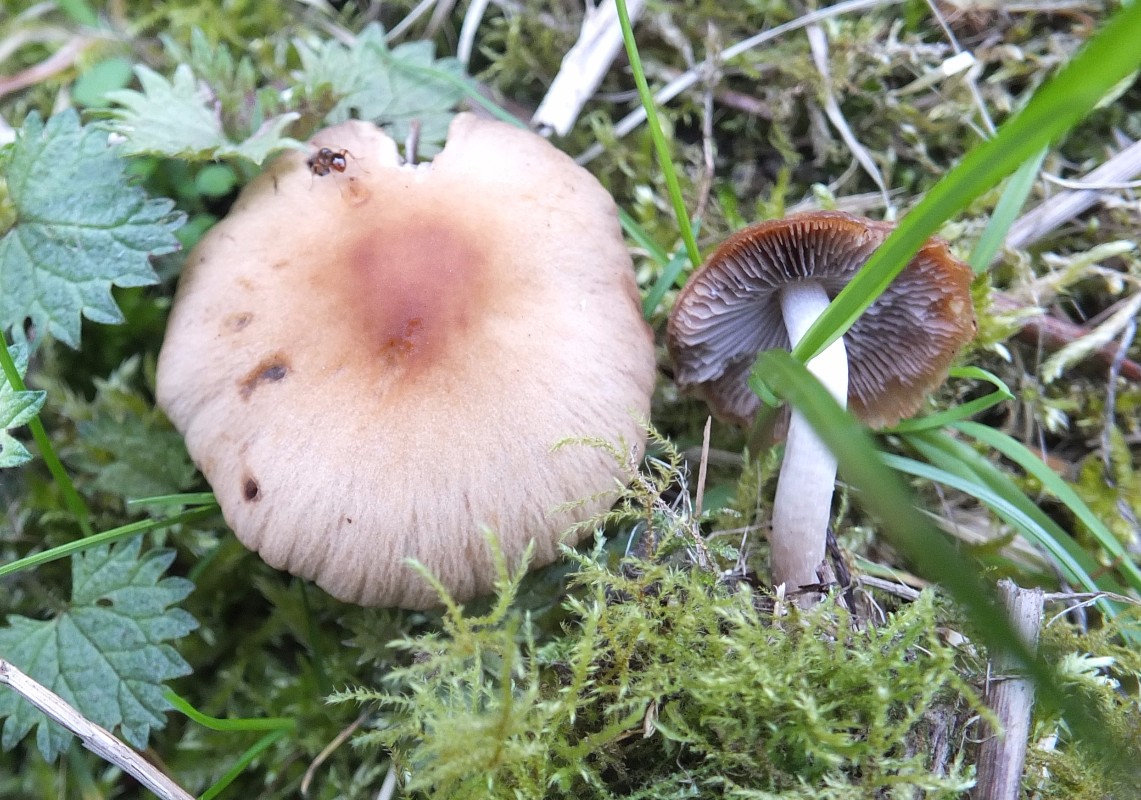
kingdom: Fungi
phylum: Basidiomycota
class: Agaricomycetes
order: Agaricales
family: Psathyrellaceae
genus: Psathyrella
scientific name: Psathyrella spadiceogrisea
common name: gråbrun mørkhat
